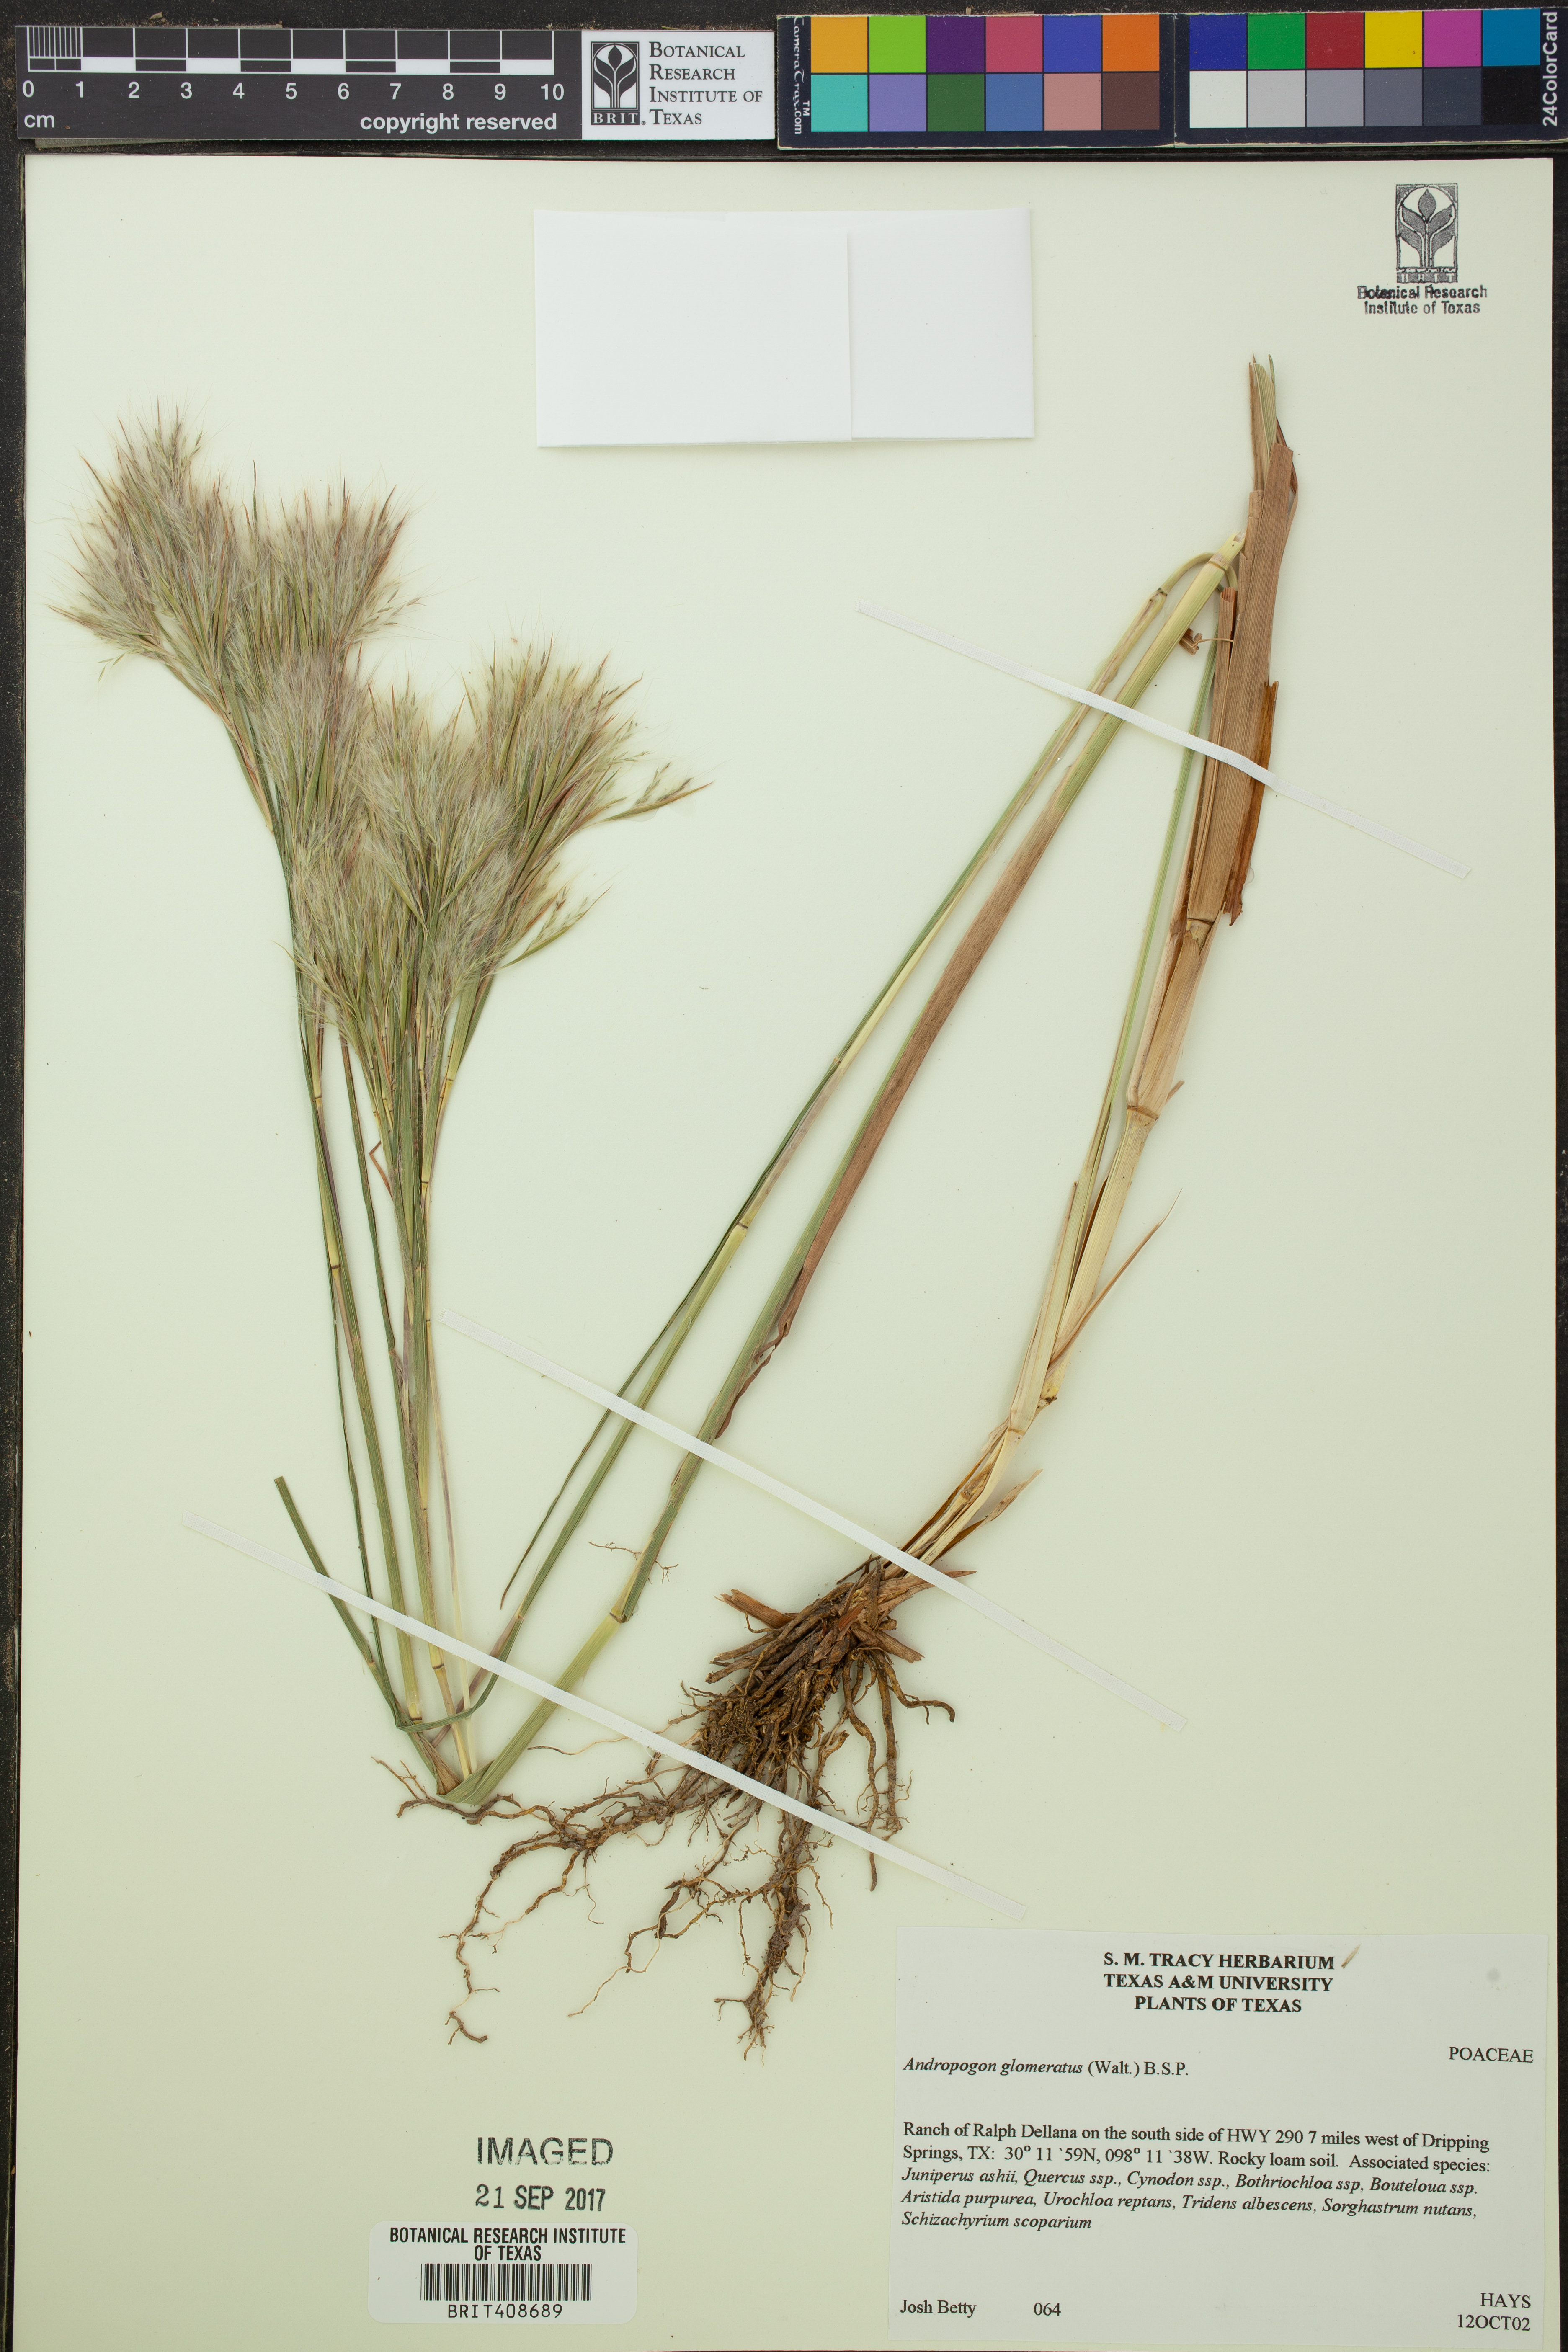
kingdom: Plantae
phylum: Tracheophyta
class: Liliopsida
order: Poales
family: Poaceae
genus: Andropogon
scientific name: Andropogon glomeratus
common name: Bushy beard grass
